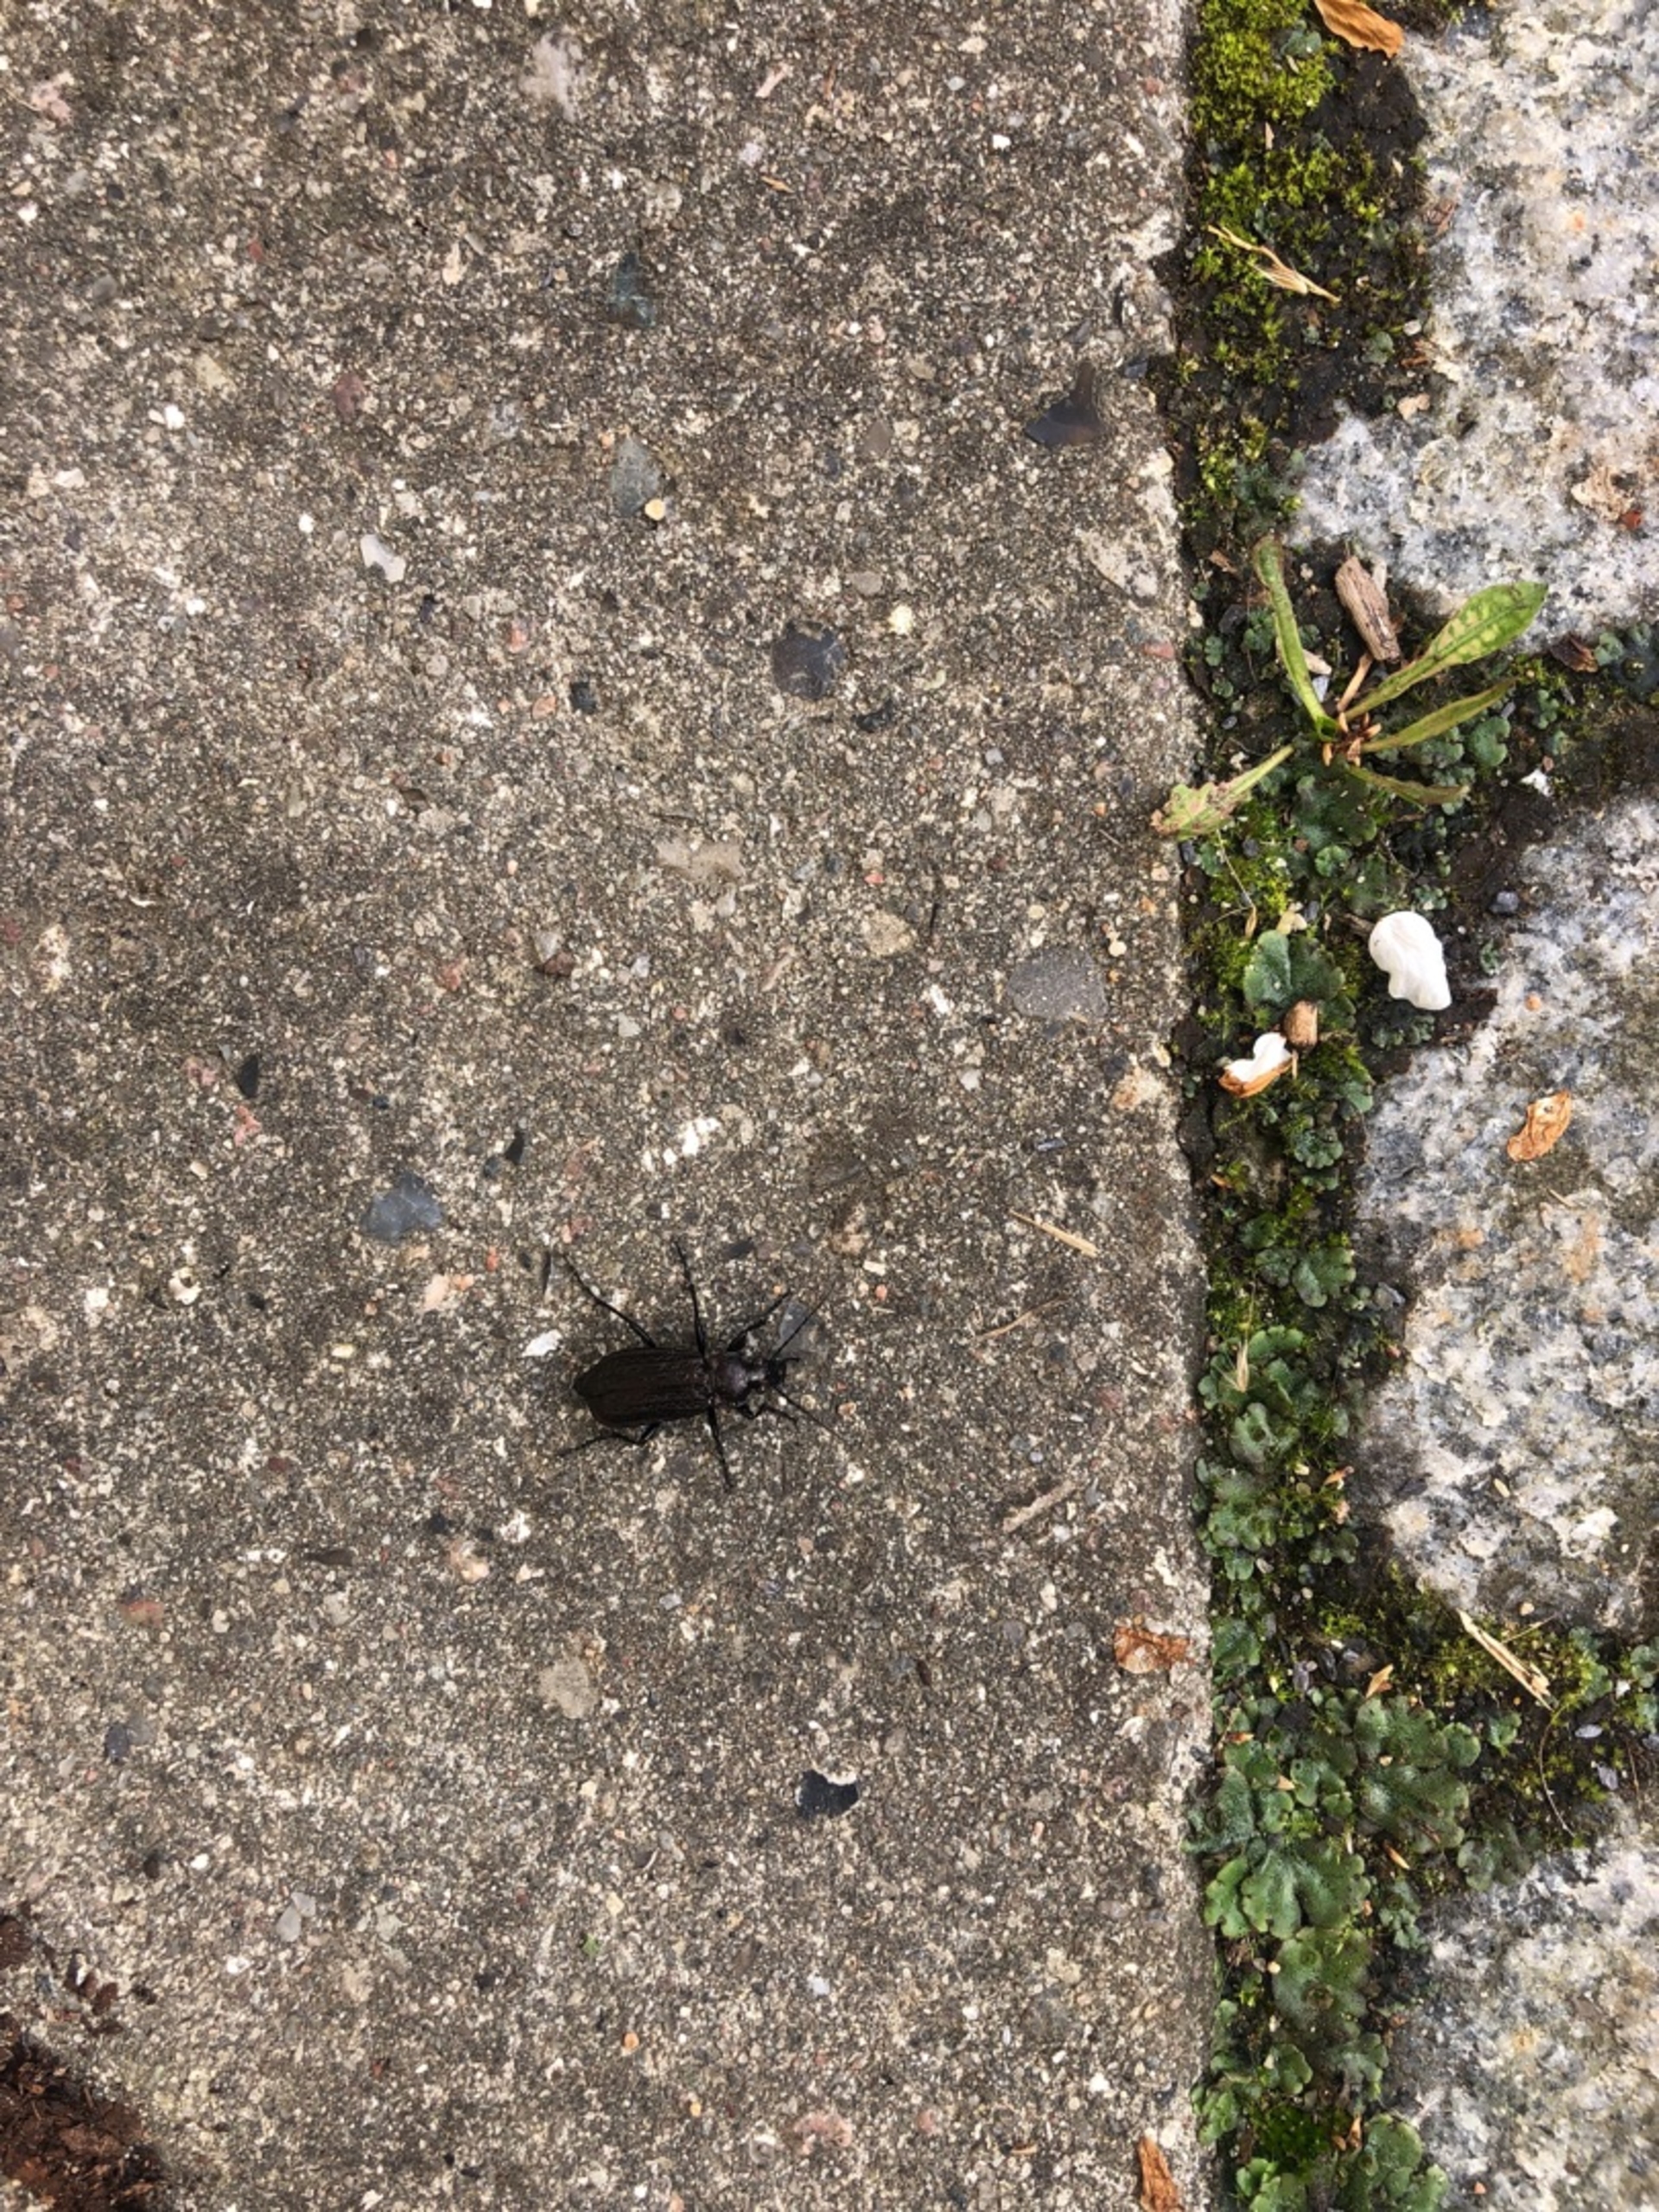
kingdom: Animalia
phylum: Arthropoda
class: Insecta
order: Coleoptera
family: Carabidae
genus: Carabus
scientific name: Carabus granulatus
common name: Kornet løber
